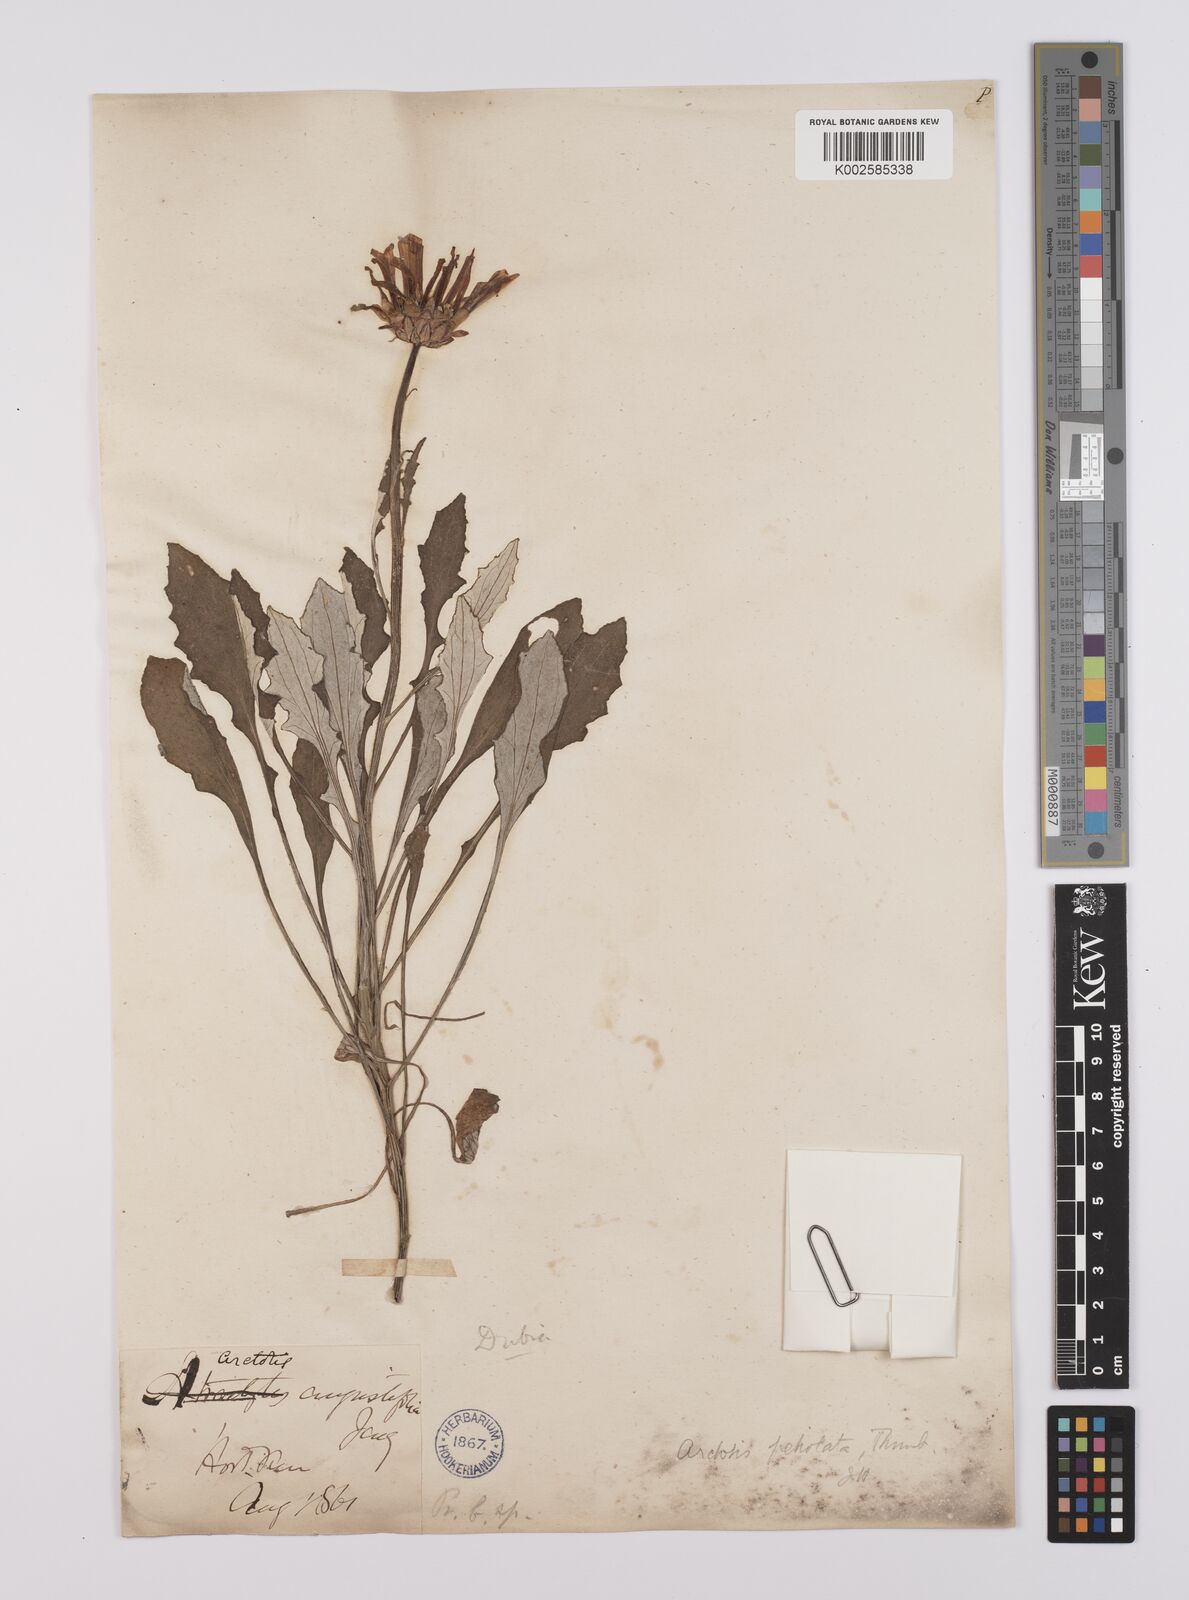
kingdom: Plantae
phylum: Tracheophyta
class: Magnoliopsida
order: Asterales
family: Asteraceae
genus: Arctotis
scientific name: Arctotis rosea
